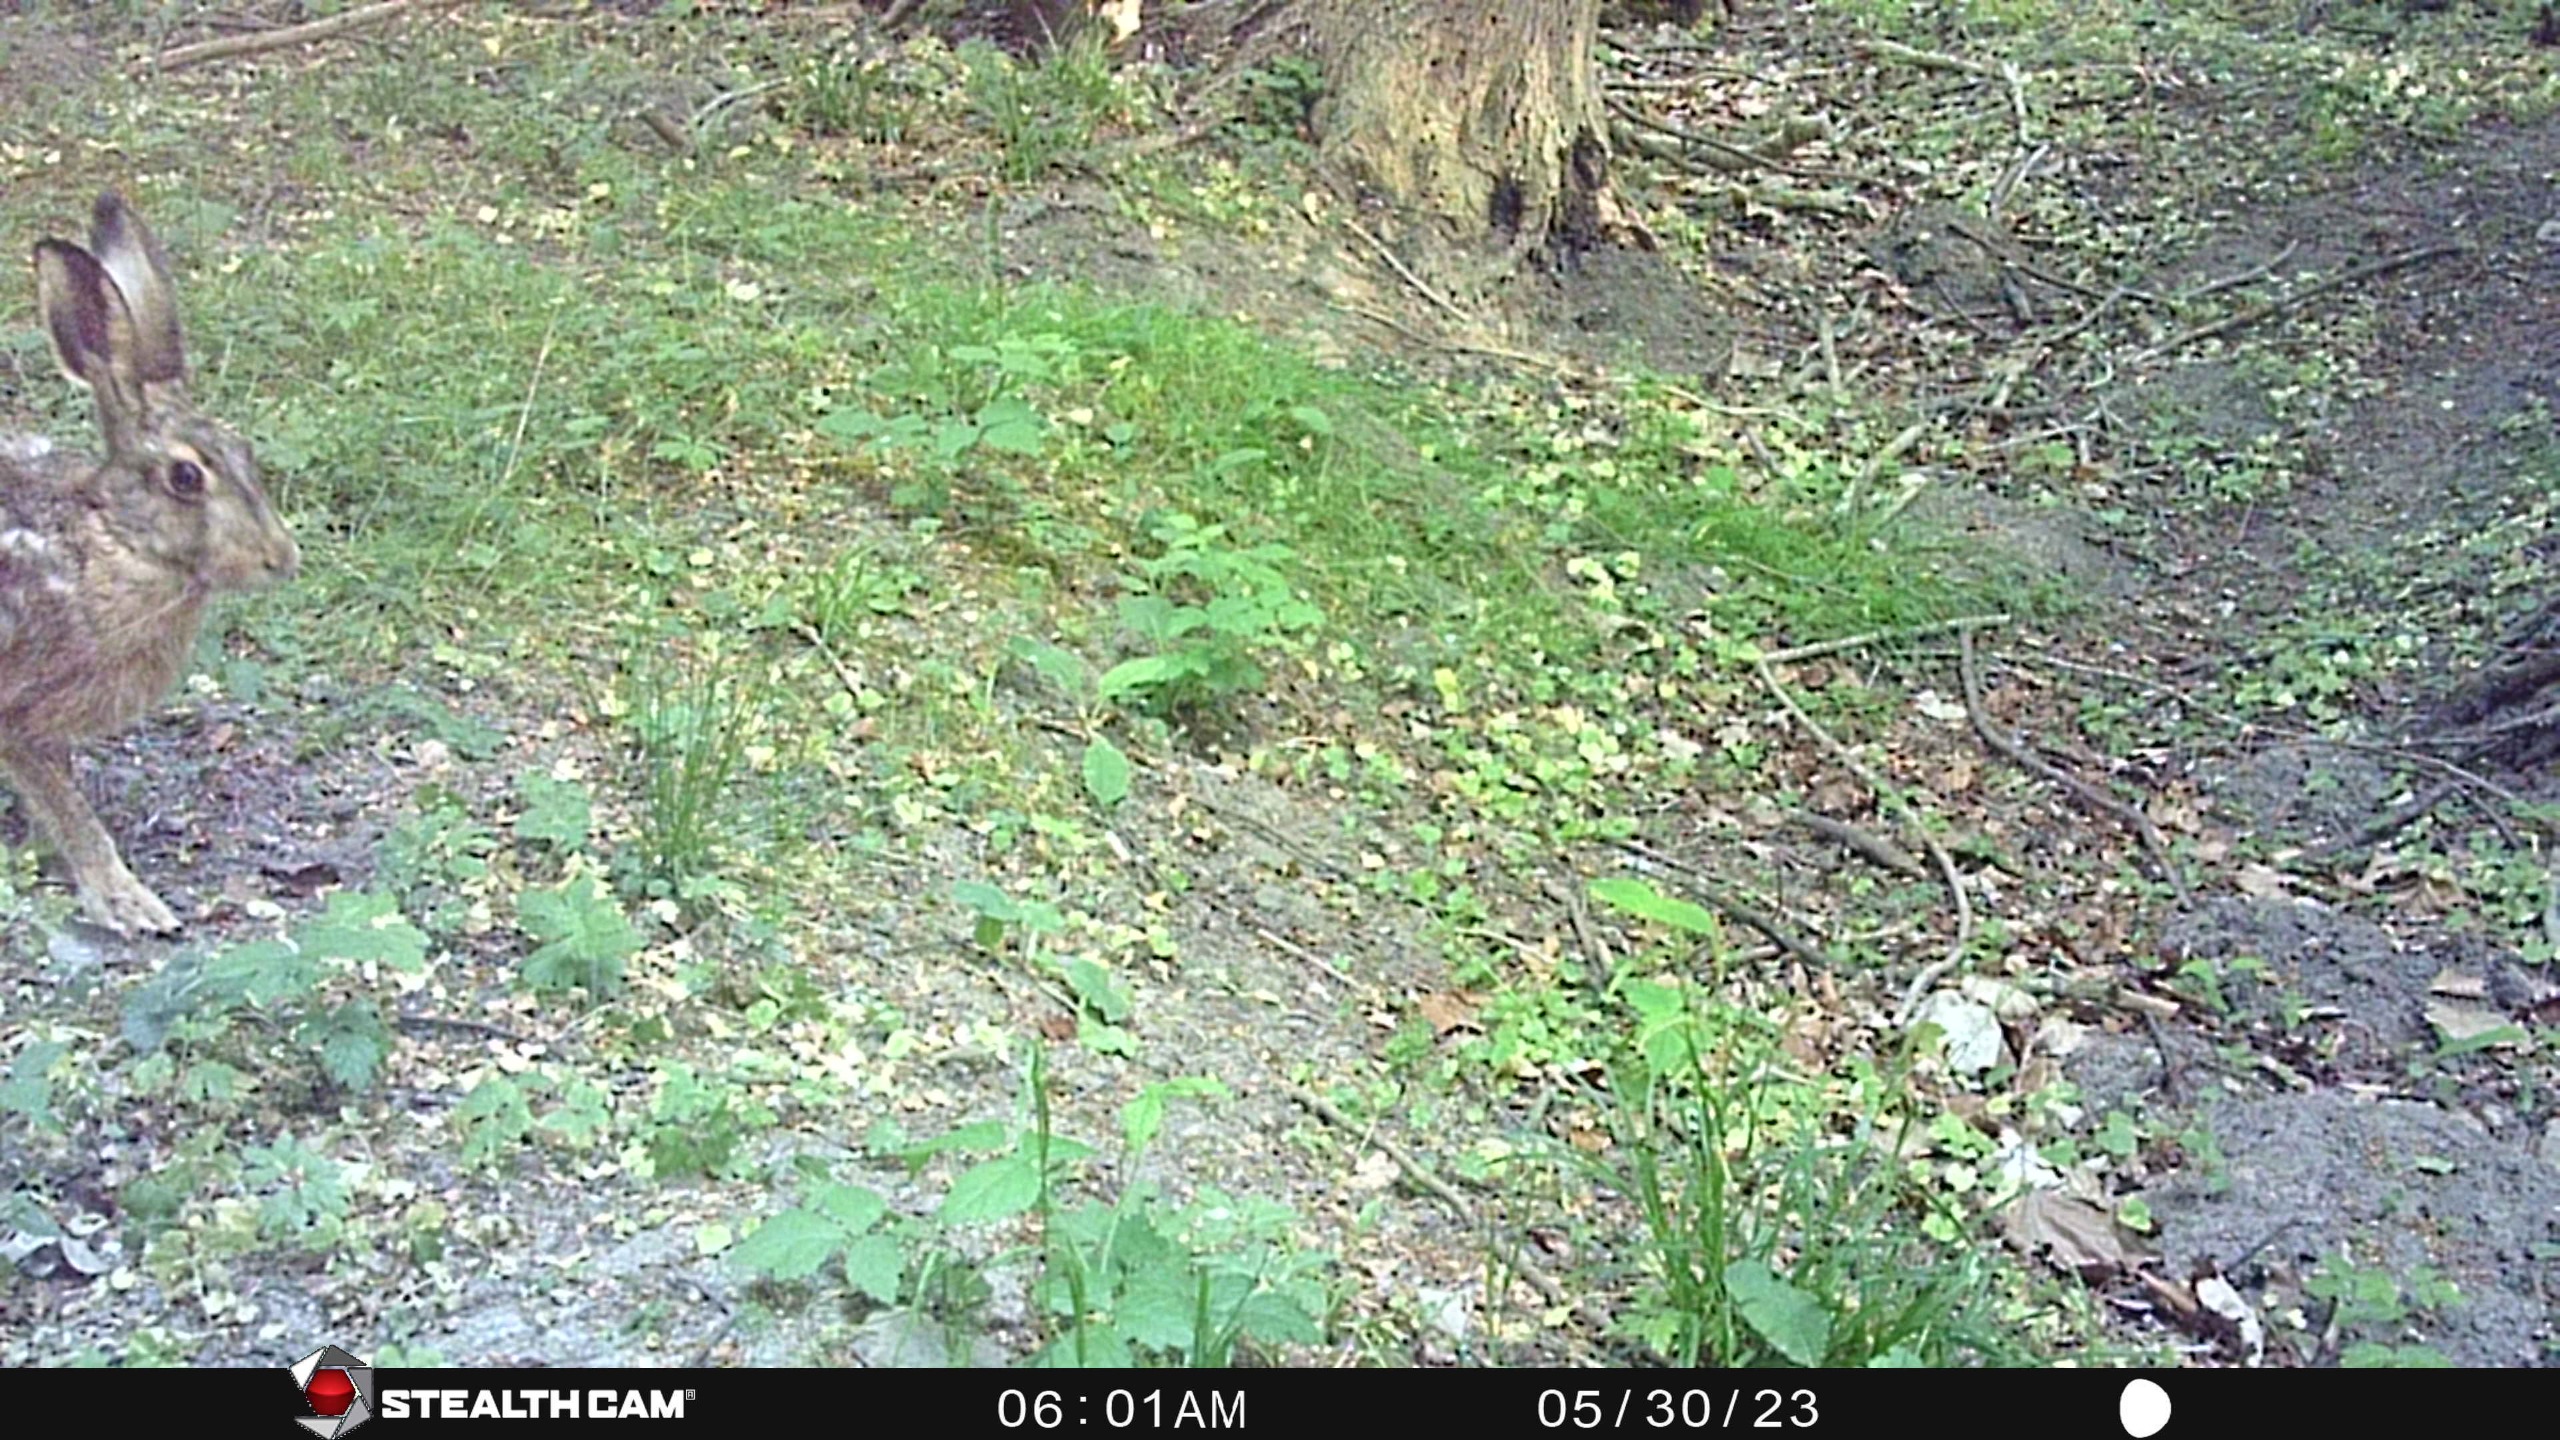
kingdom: Animalia
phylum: Chordata
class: Mammalia
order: Lagomorpha
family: Leporidae
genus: Lepus
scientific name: Lepus europaeus
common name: Hare
